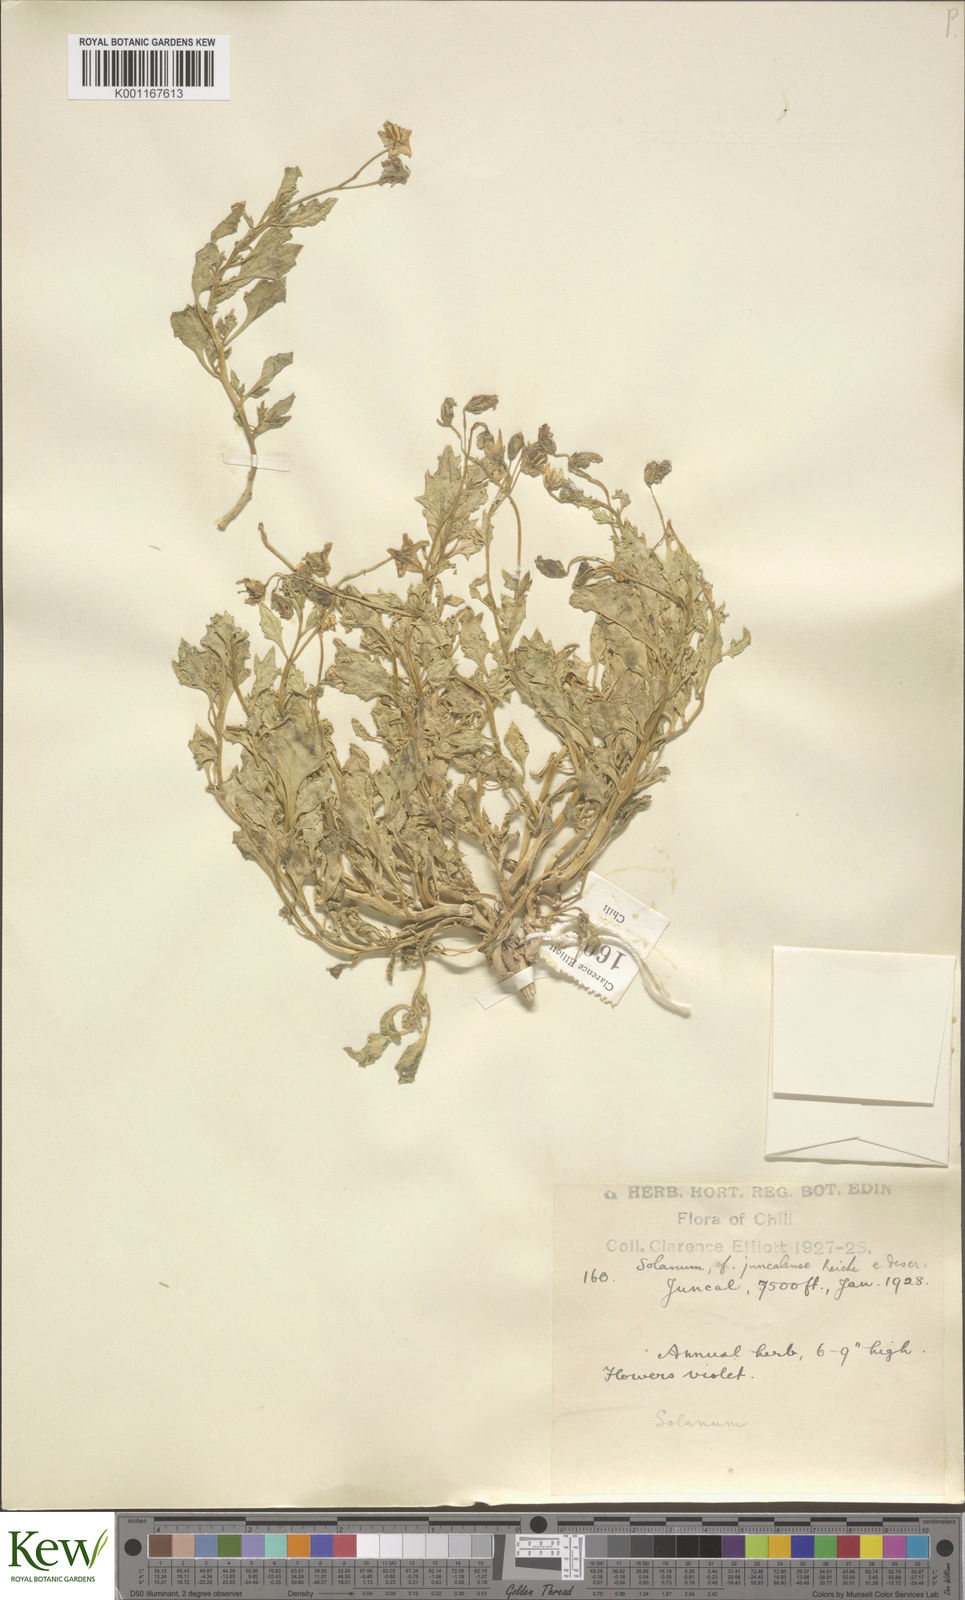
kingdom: Plantae
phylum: Tracheophyta
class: Magnoliopsida
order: Solanales
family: Solanaceae
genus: Solanum
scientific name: Solanum echegarayi
